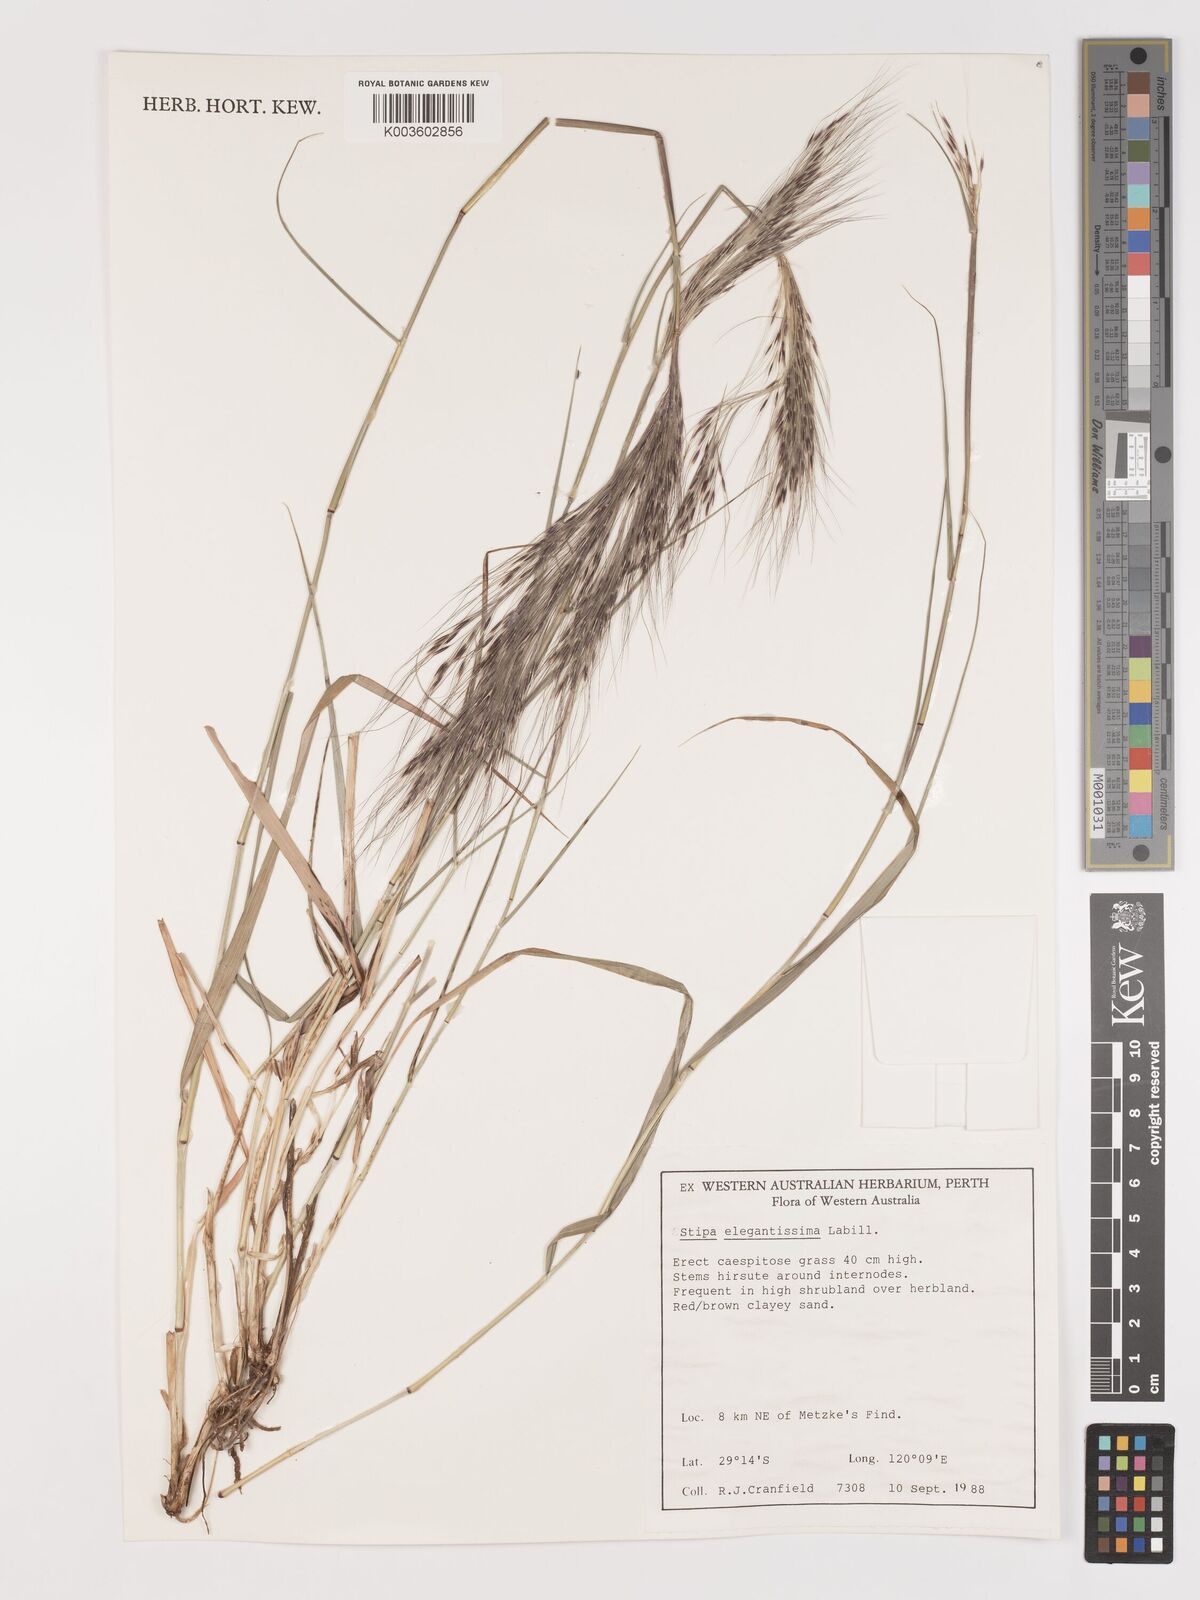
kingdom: Plantae
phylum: Tracheophyta
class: Liliopsida
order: Poales
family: Poaceae
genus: Austrostipa
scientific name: Austrostipa elegantissima
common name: Feather spear grass
